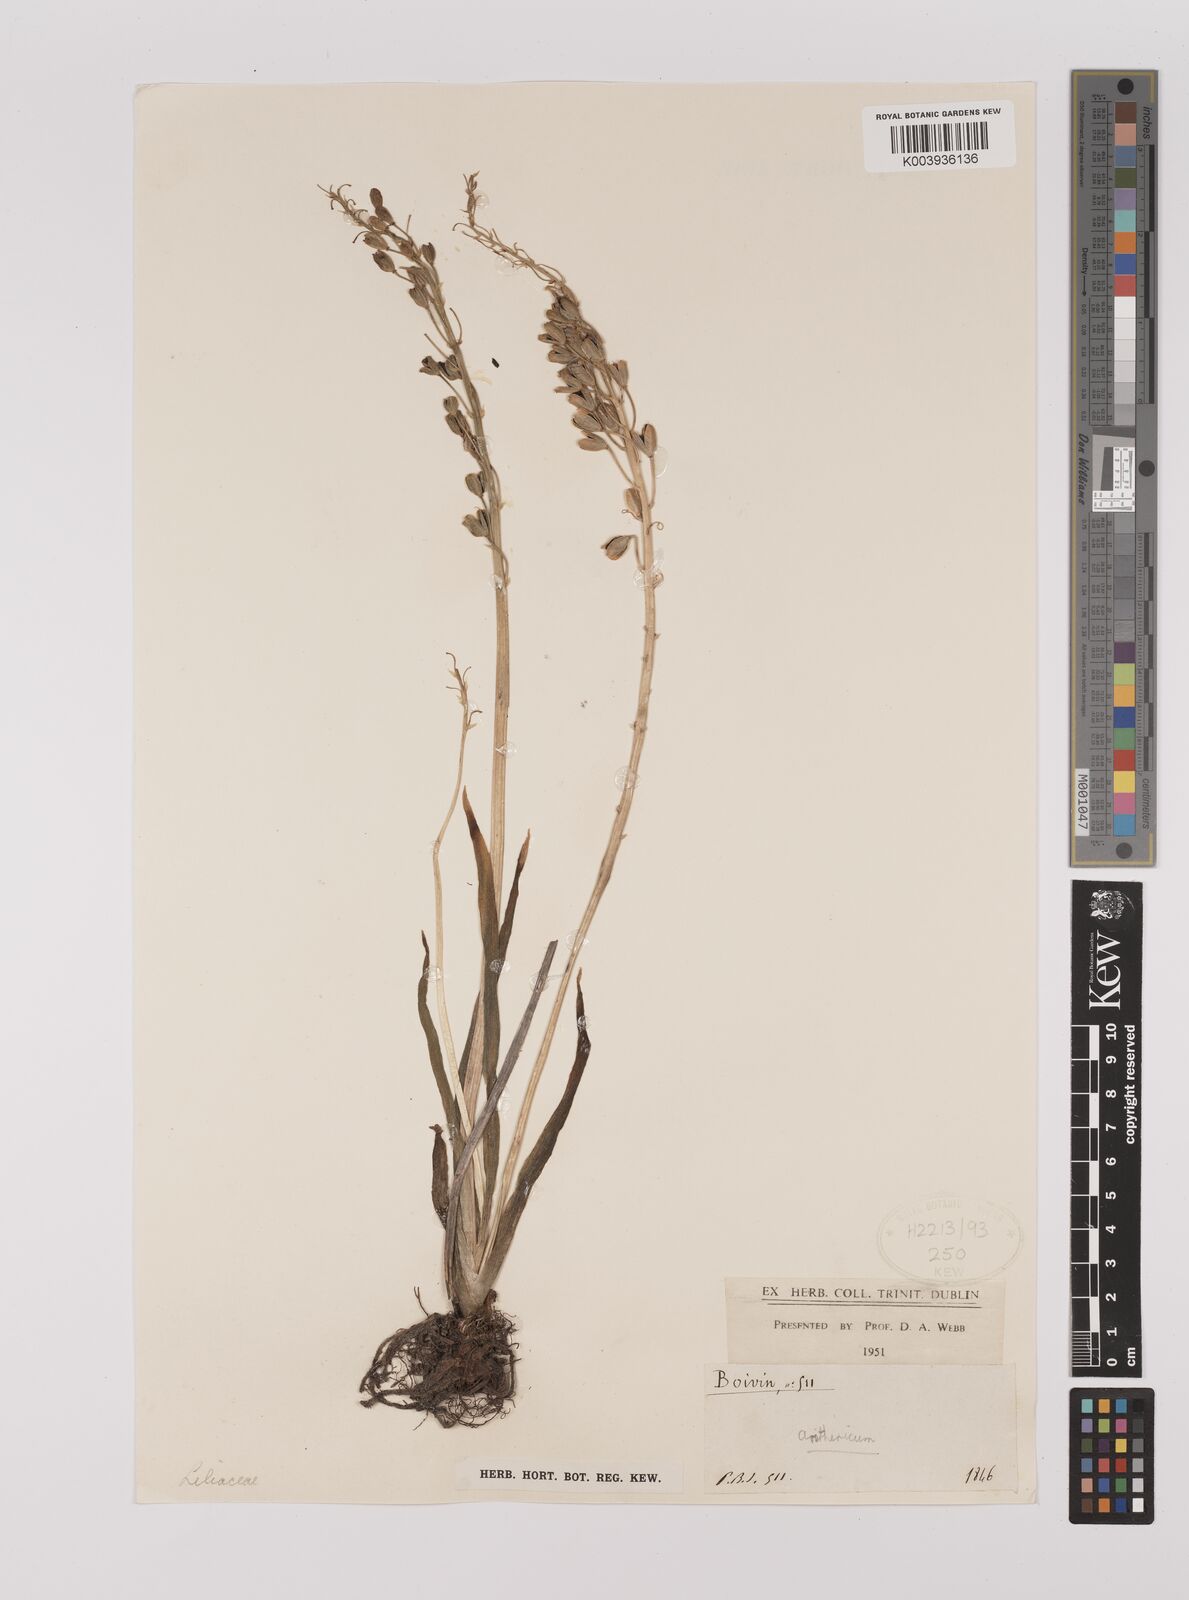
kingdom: Plantae
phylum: Tracheophyta
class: Liliopsida
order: Asparagales
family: Asparagaceae
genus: Chlorophytum
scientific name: Chlorophytum
